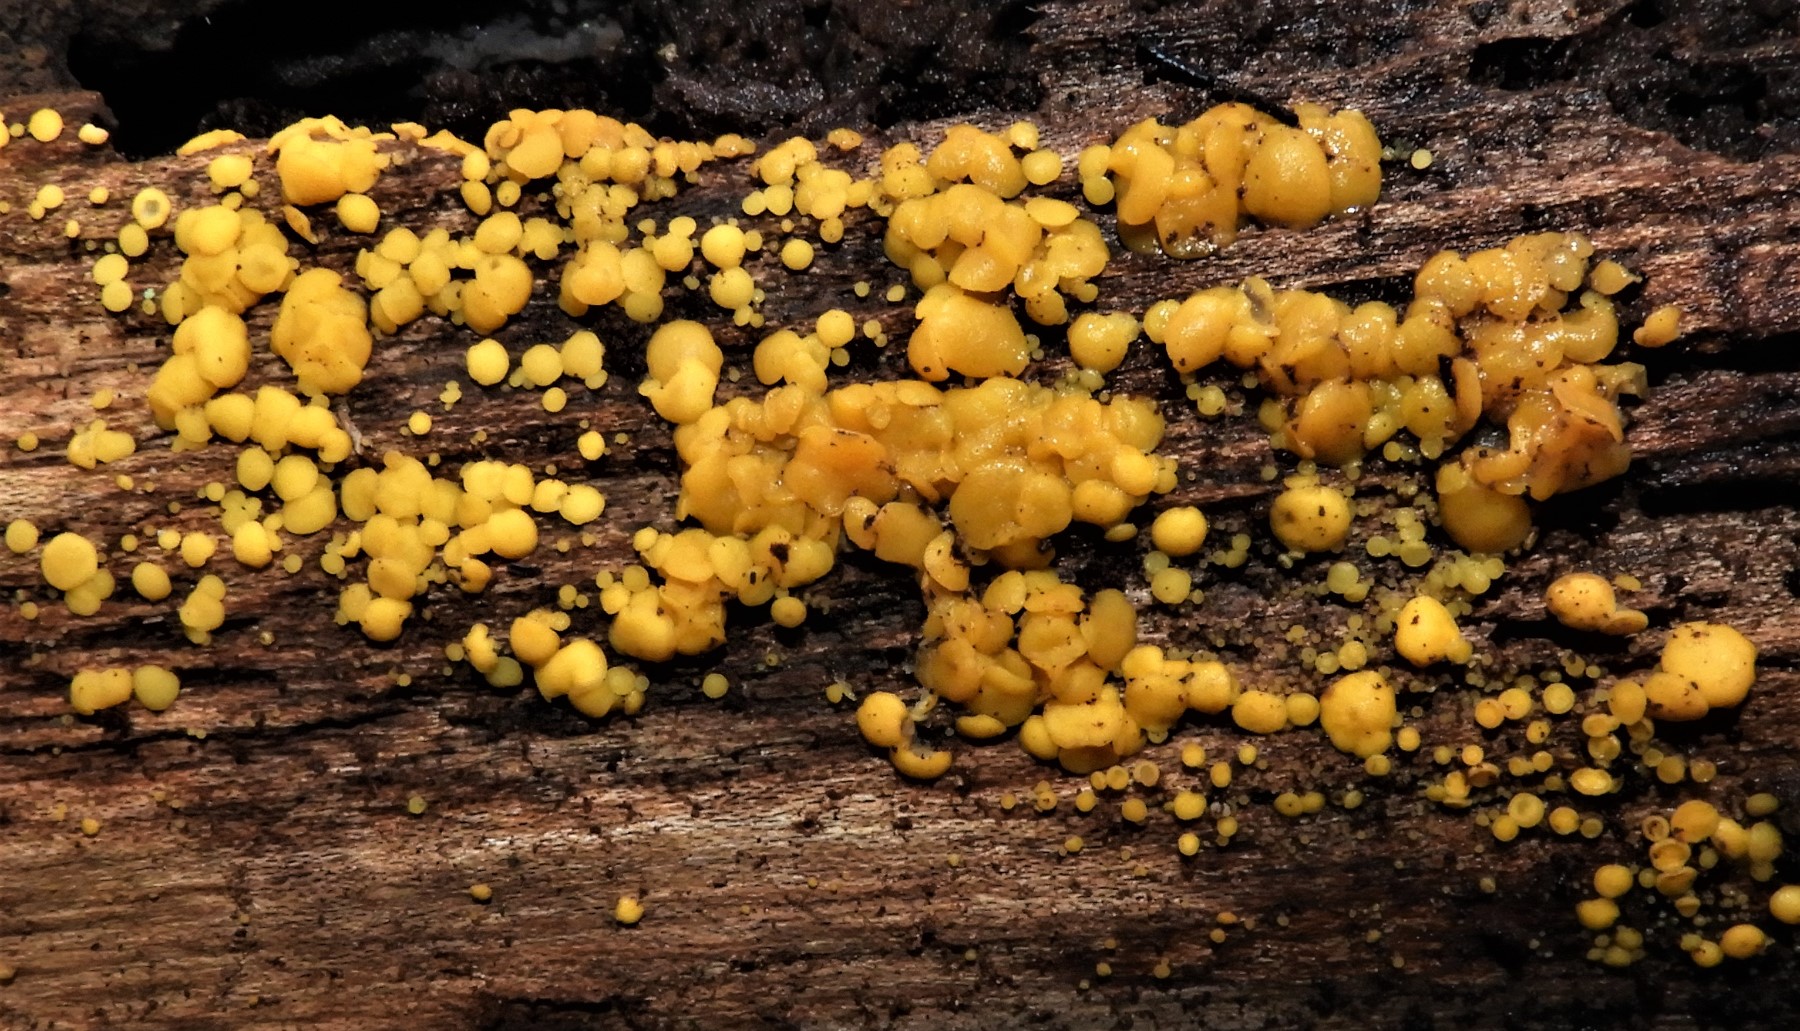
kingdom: Fungi
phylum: Ascomycota
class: Leotiomycetes
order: Helotiales
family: Pezizellaceae
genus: Calycina
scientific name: Calycina citrina
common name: almindelig gulskive
